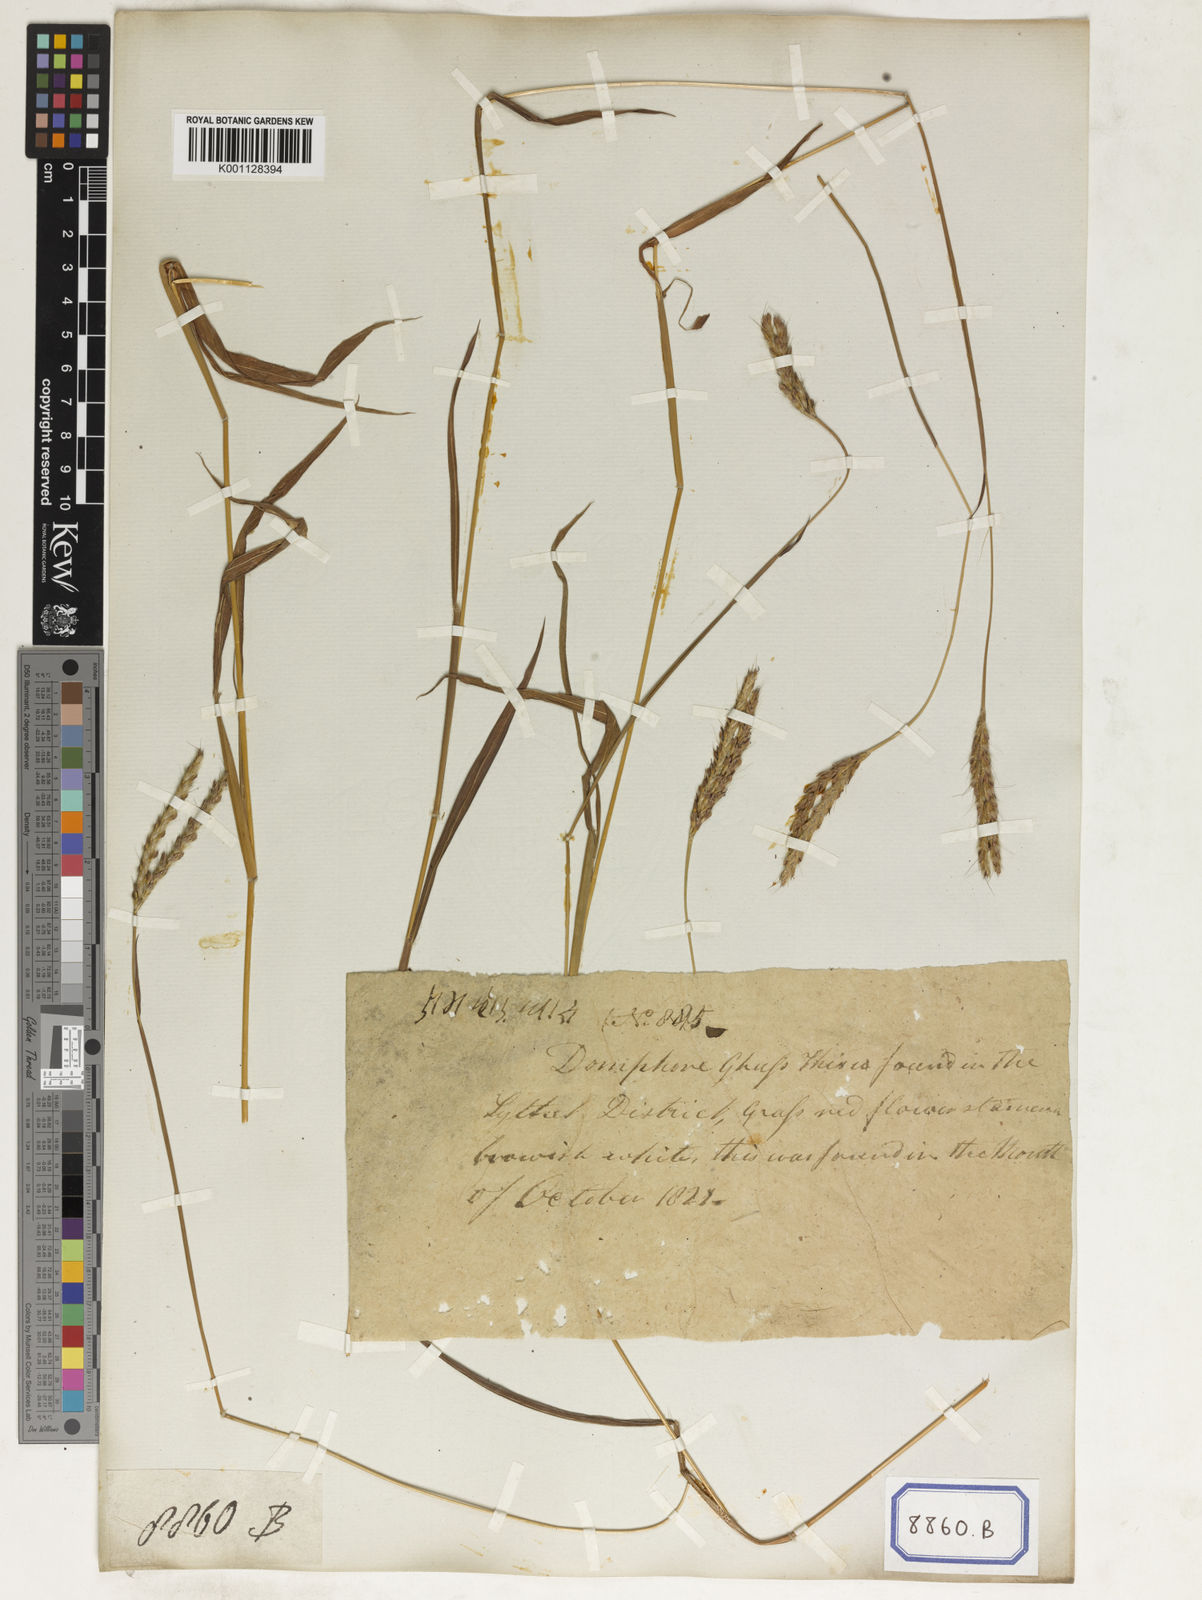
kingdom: Plantae
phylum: Tracheophyta
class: Liliopsida
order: Poales
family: Poaceae
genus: Spodiopogon
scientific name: Spodiopogon
